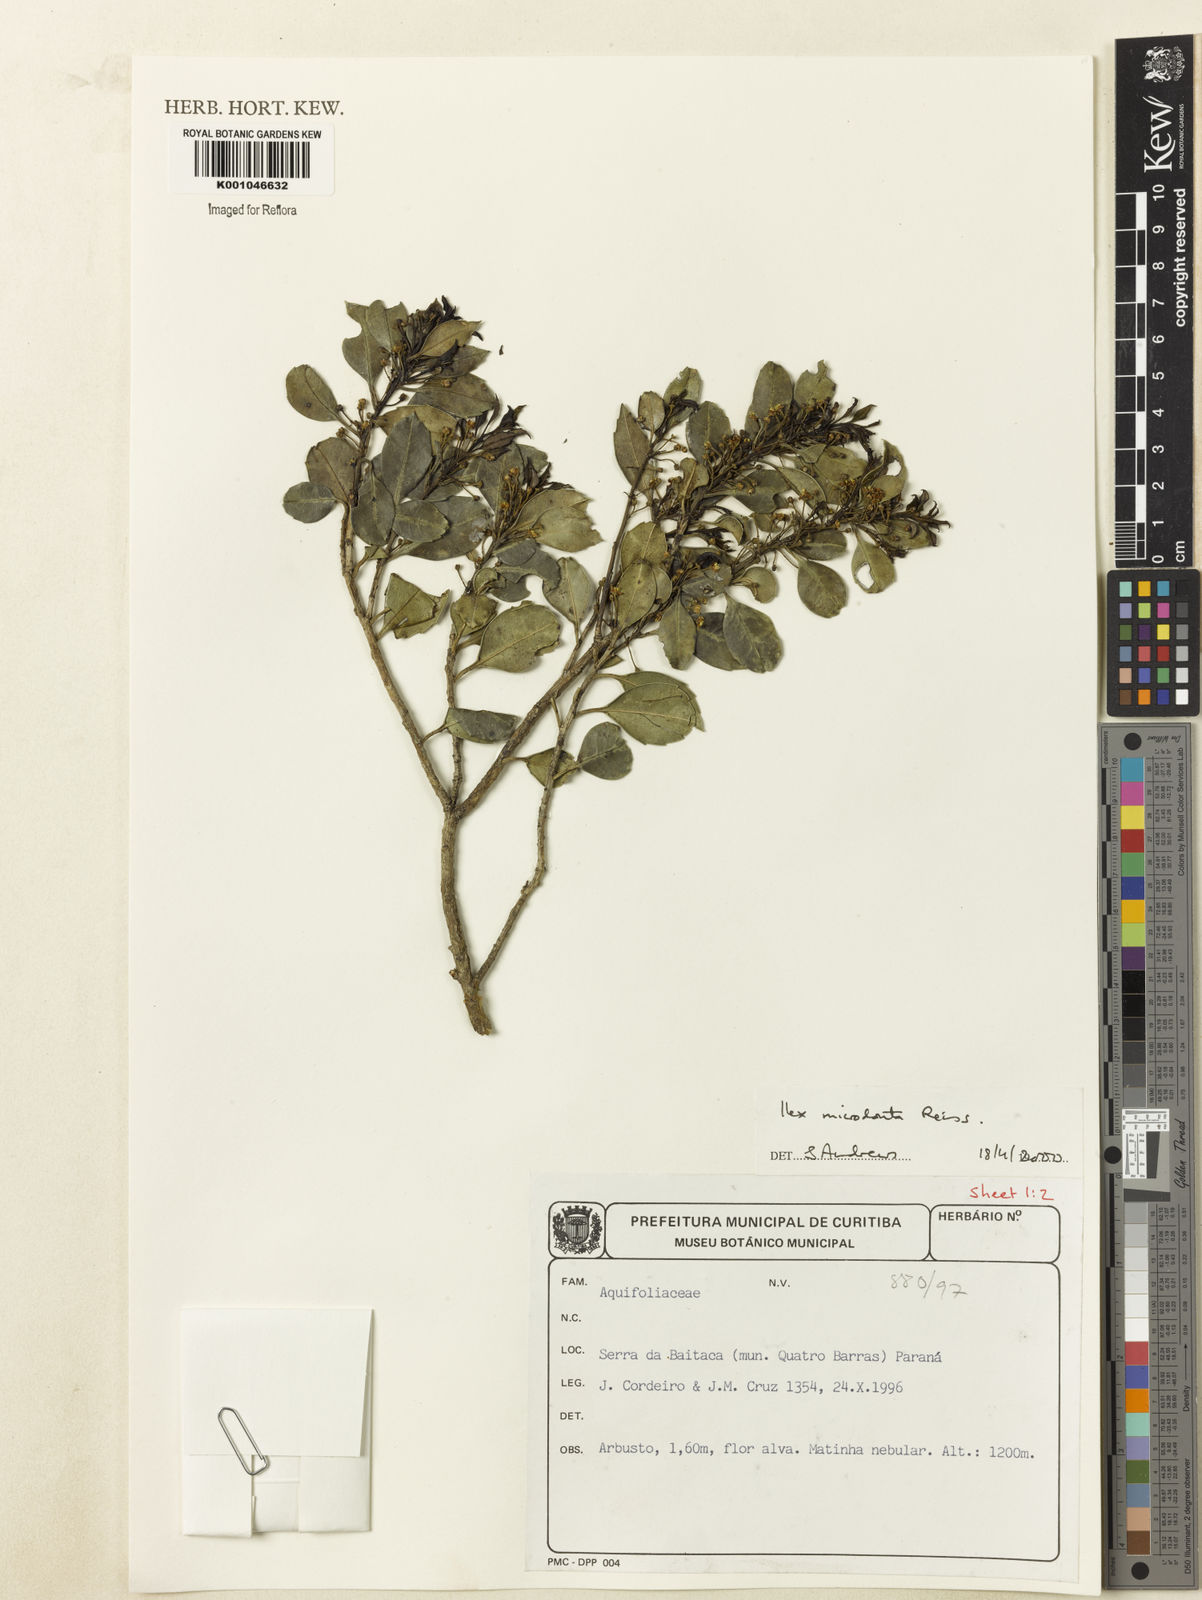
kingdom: Plantae
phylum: Tracheophyta
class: Magnoliopsida
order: Aquifoliales
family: Aquifoliaceae
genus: Ilex
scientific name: Ilex microdonta
